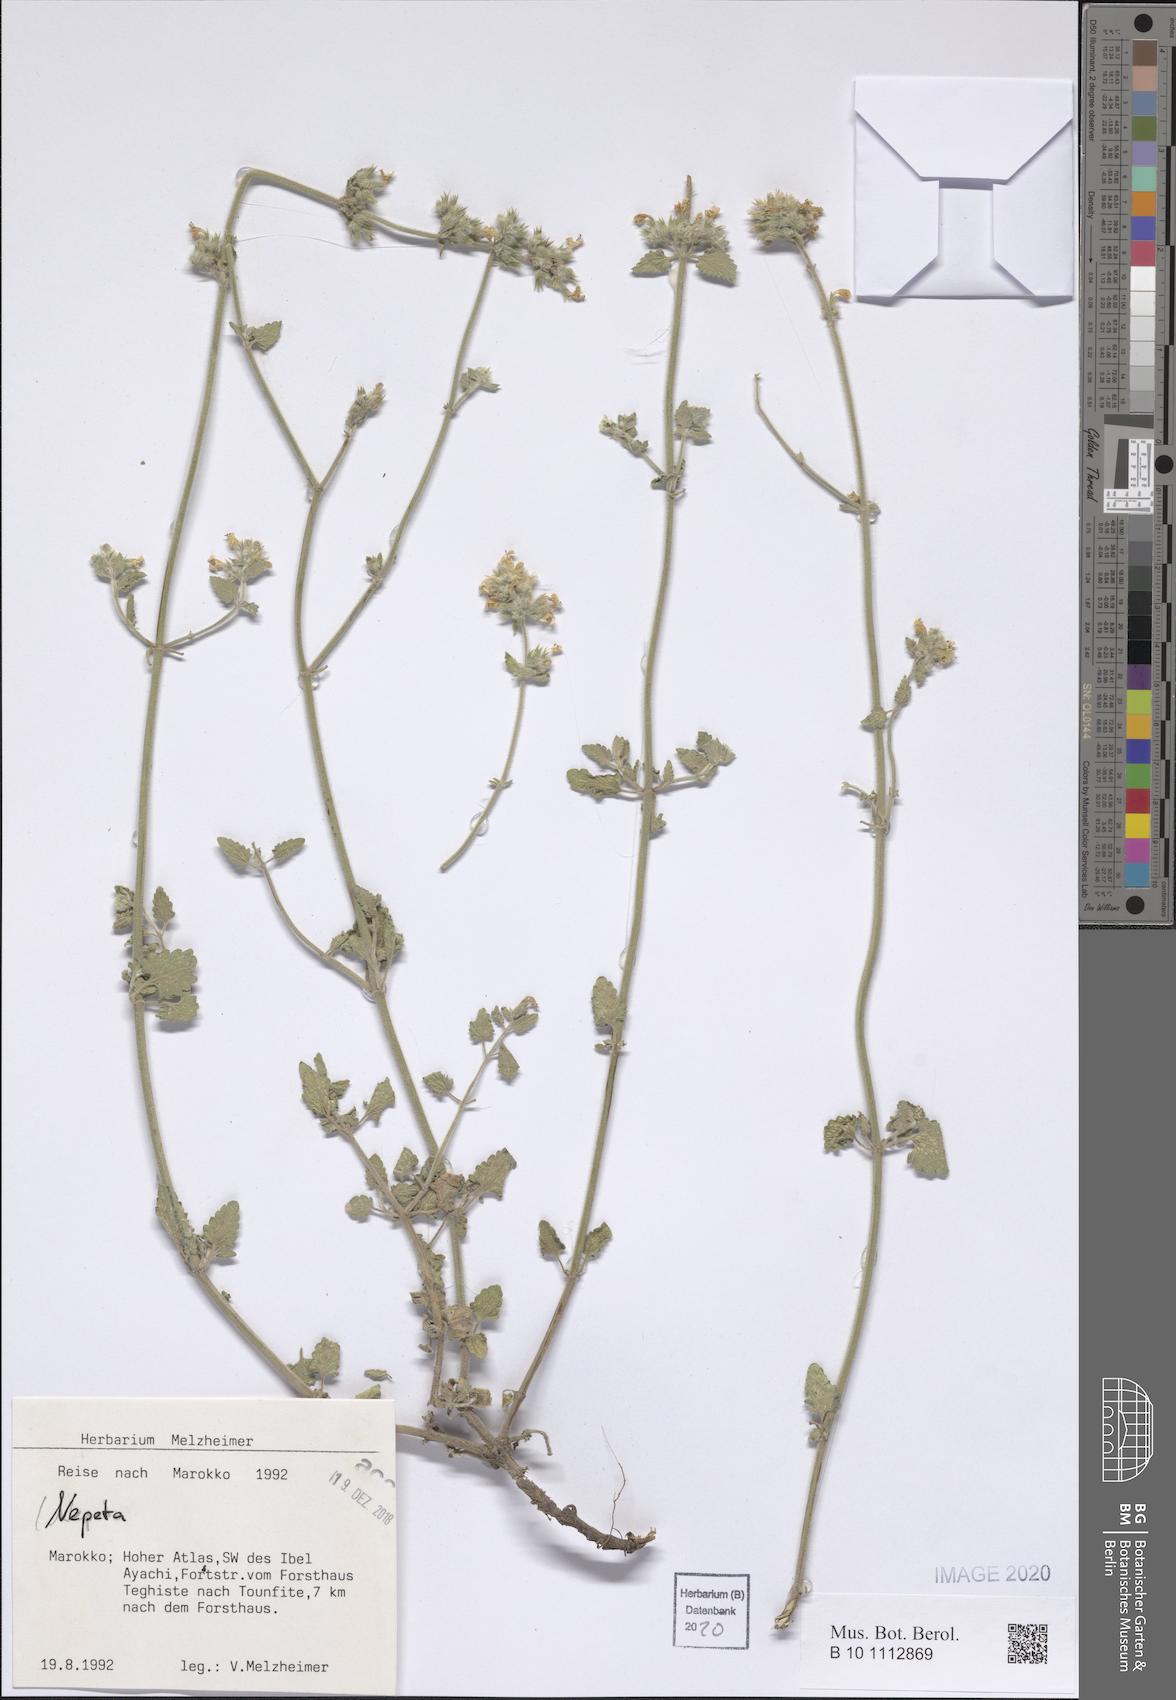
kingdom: Plantae
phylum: Tracheophyta
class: Magnoliopsida
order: Lamiales
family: Lamiaceae
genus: Nepeta
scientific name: Nepeta
